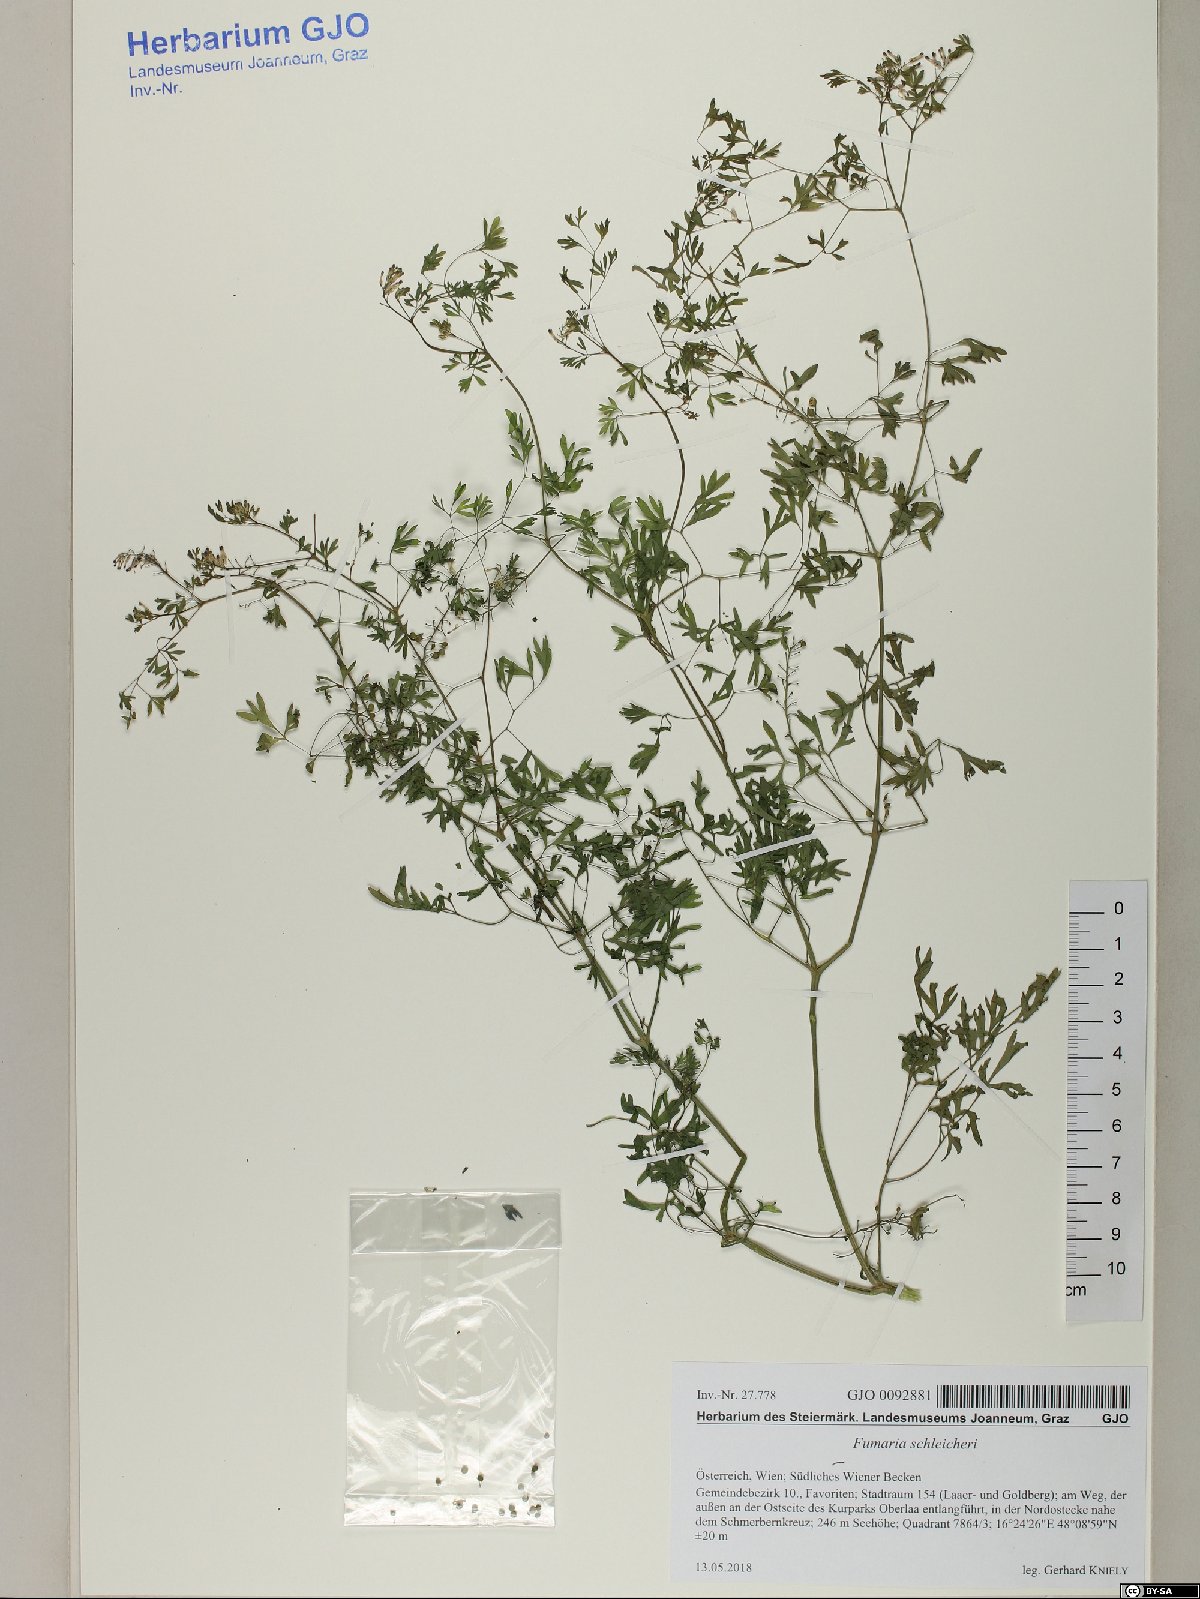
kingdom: Plantae
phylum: Tracheophyta
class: Magnoliopsida
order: Ranunculales
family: Papaveraceae
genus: Fumaria
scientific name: Fumaria schleicheri
